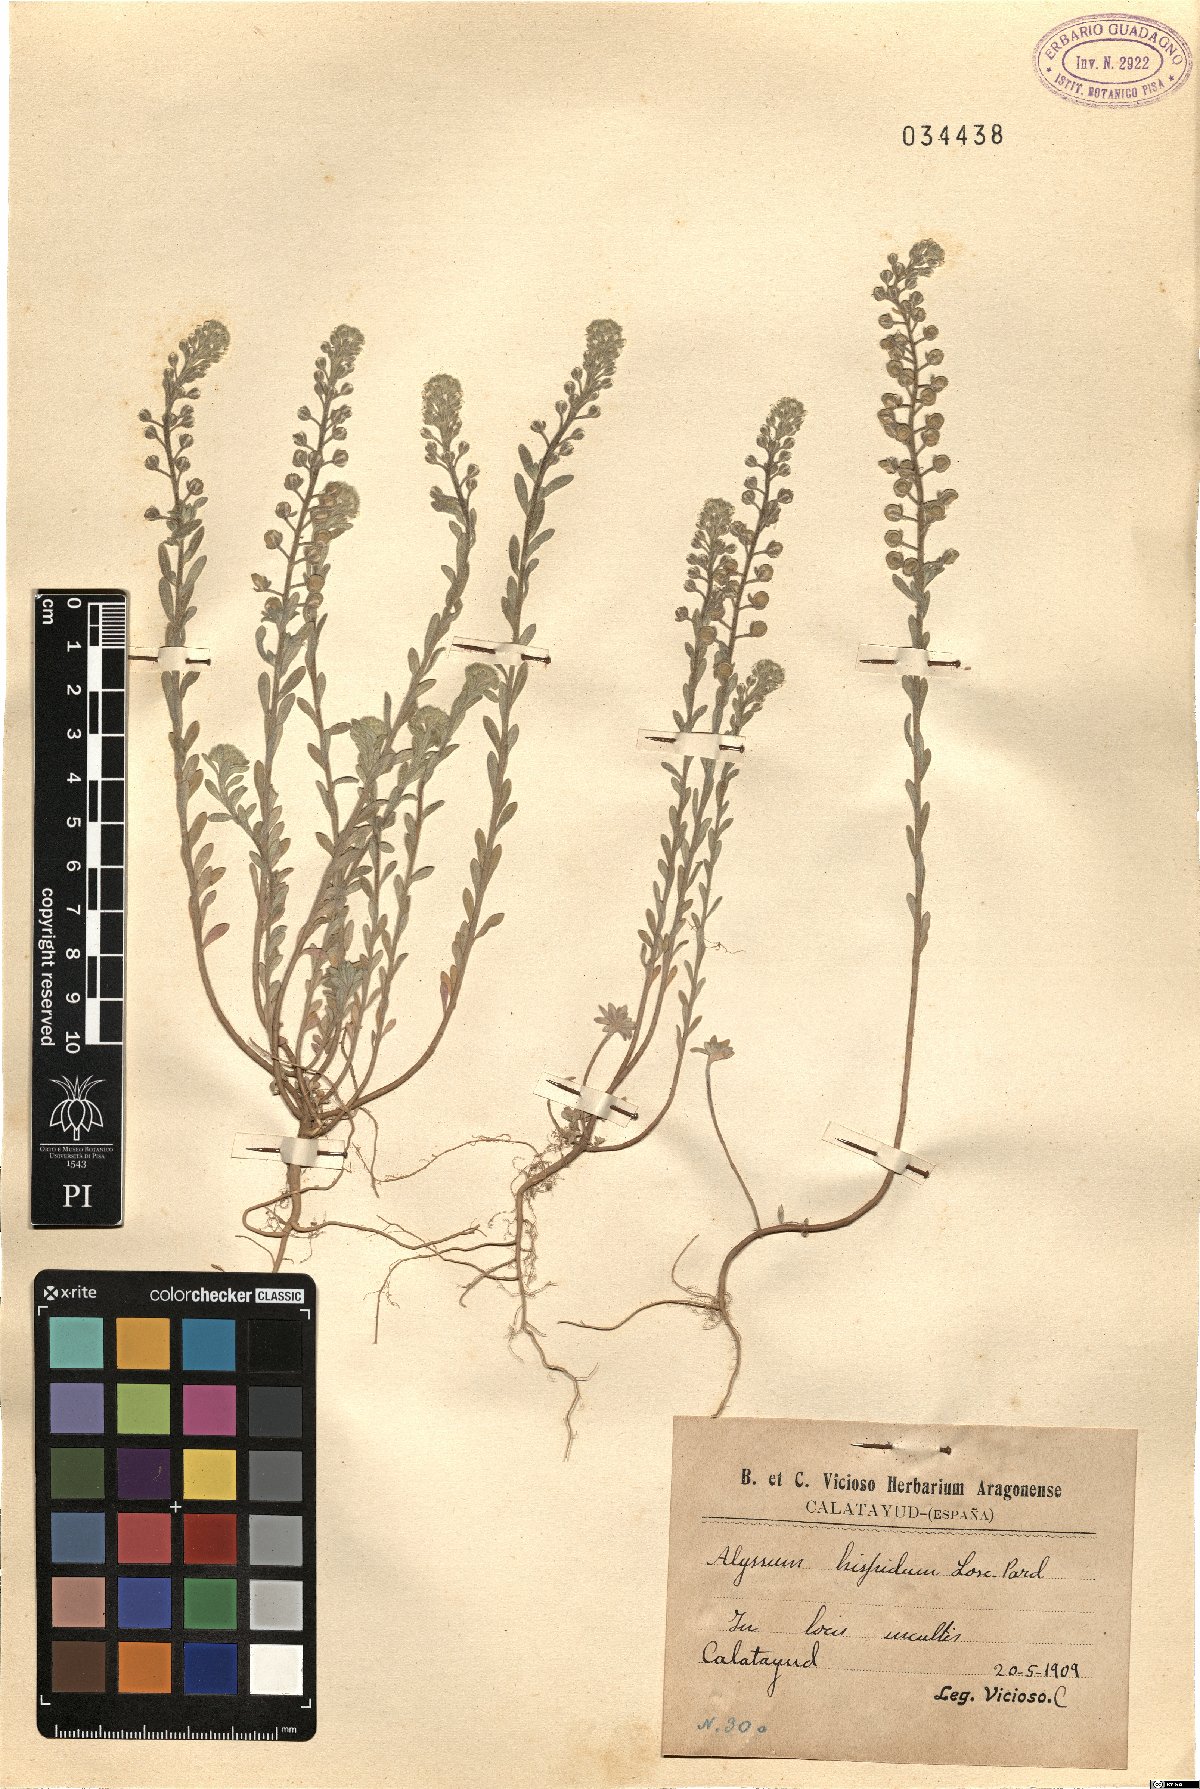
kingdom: Plantae
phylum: Tracheophyta
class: Magnoliopsida
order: Brassicales
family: Brassicaceae
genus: Alyssum
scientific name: Alyssum granatense
